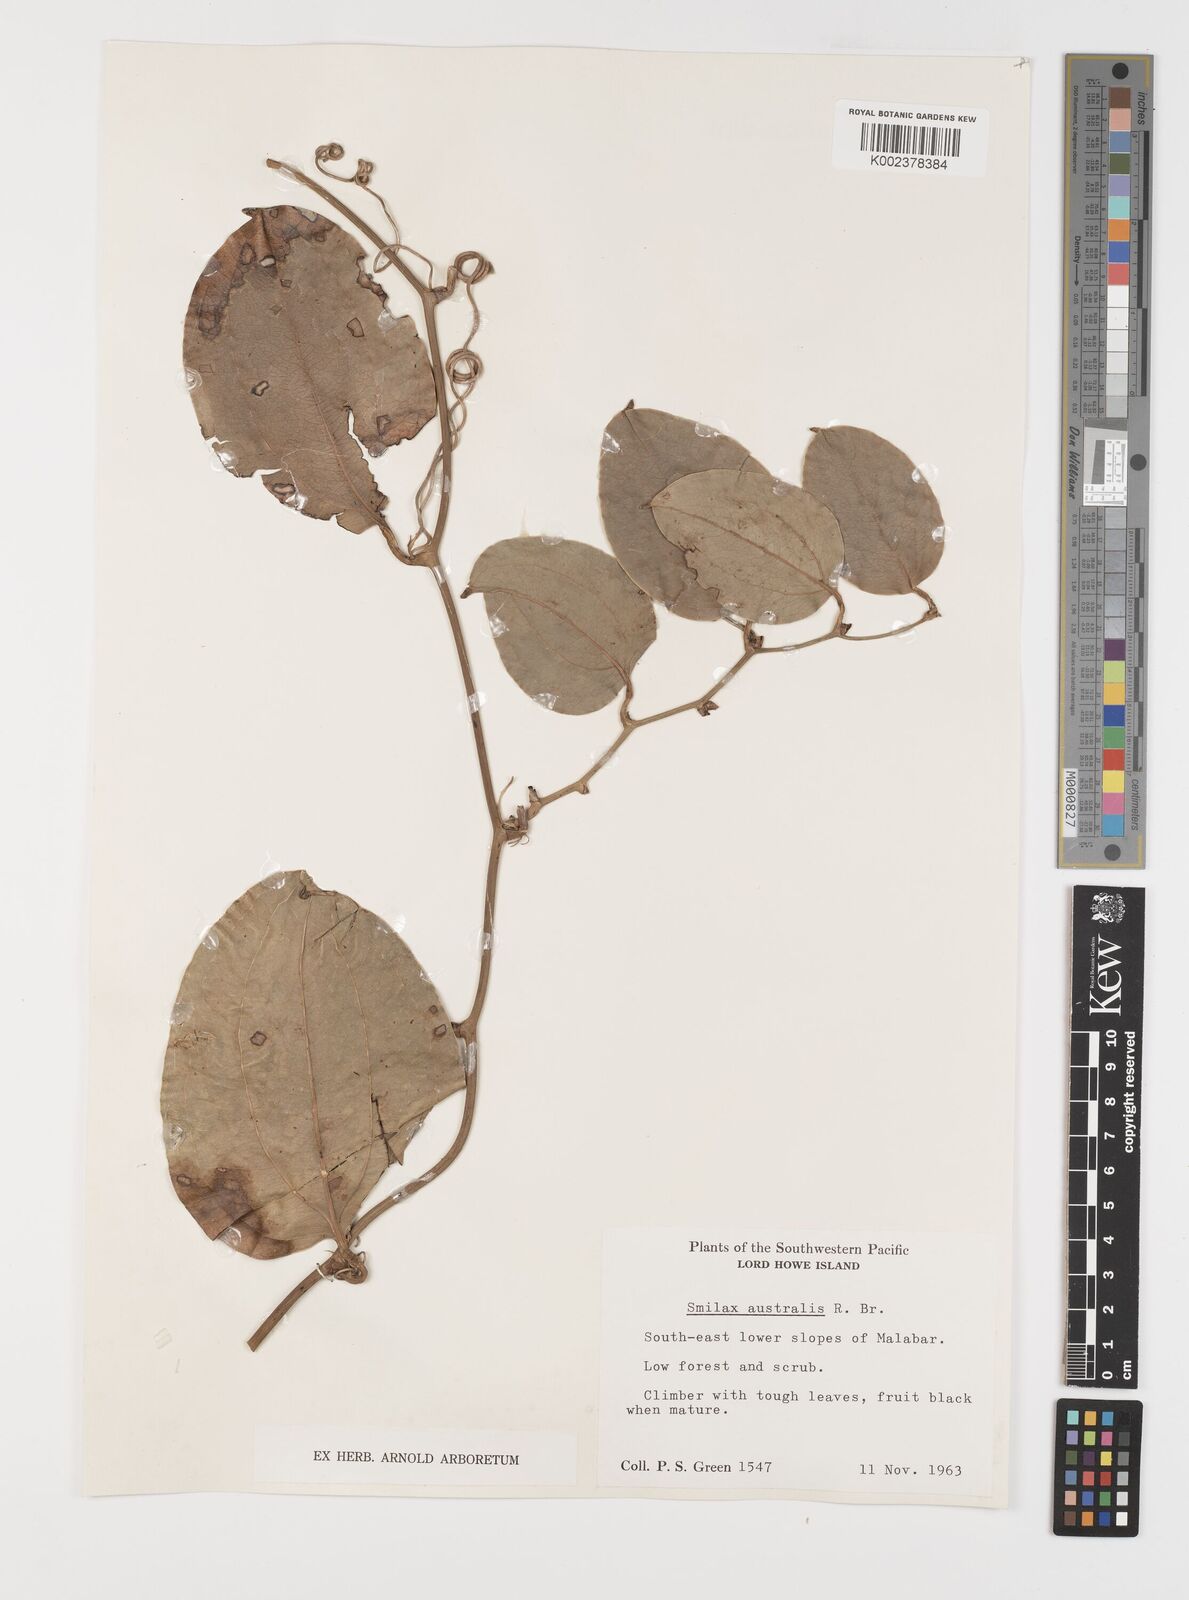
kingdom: Plantae
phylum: Tracheophyta
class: Liliopsida
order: Liliales
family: Smilacaceae
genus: Smilax
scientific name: Smilax australis
